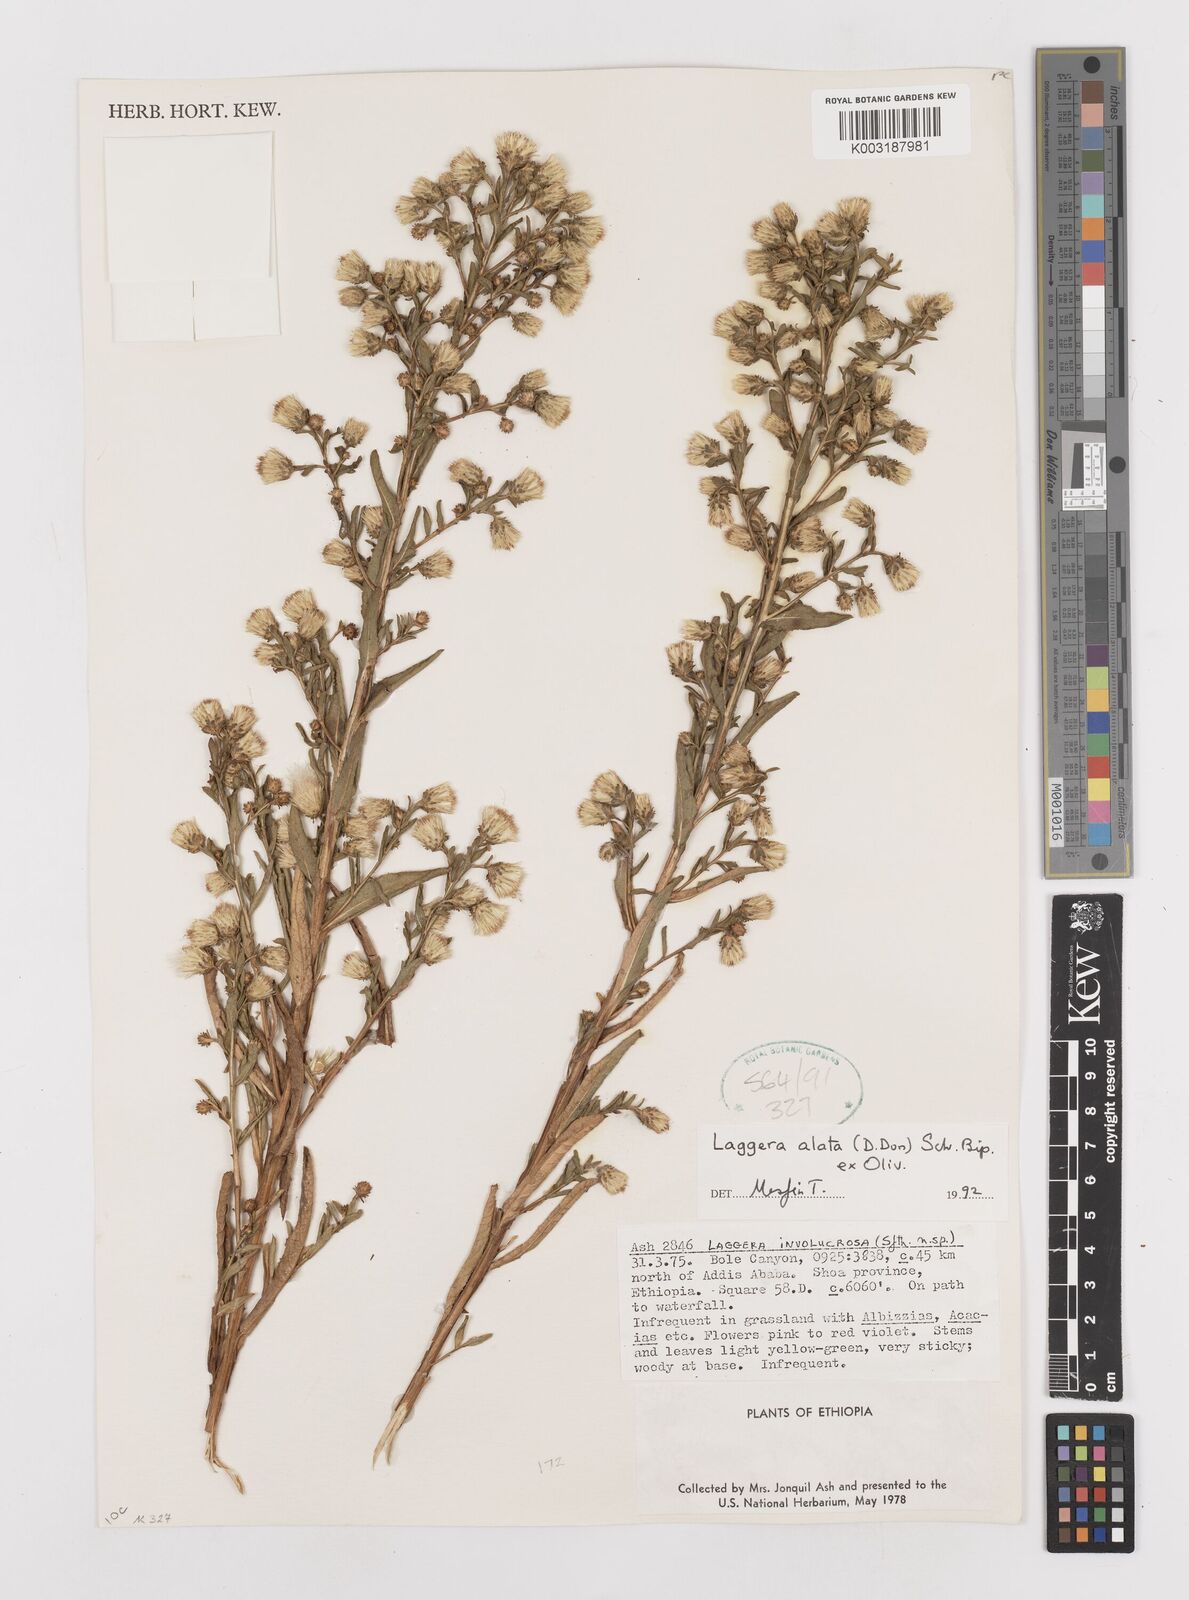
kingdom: Plantae
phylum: Tracheophyta
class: Magnoliopsida
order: Asterales
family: Asteraceae
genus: Laggera
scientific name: Laggera crispata
